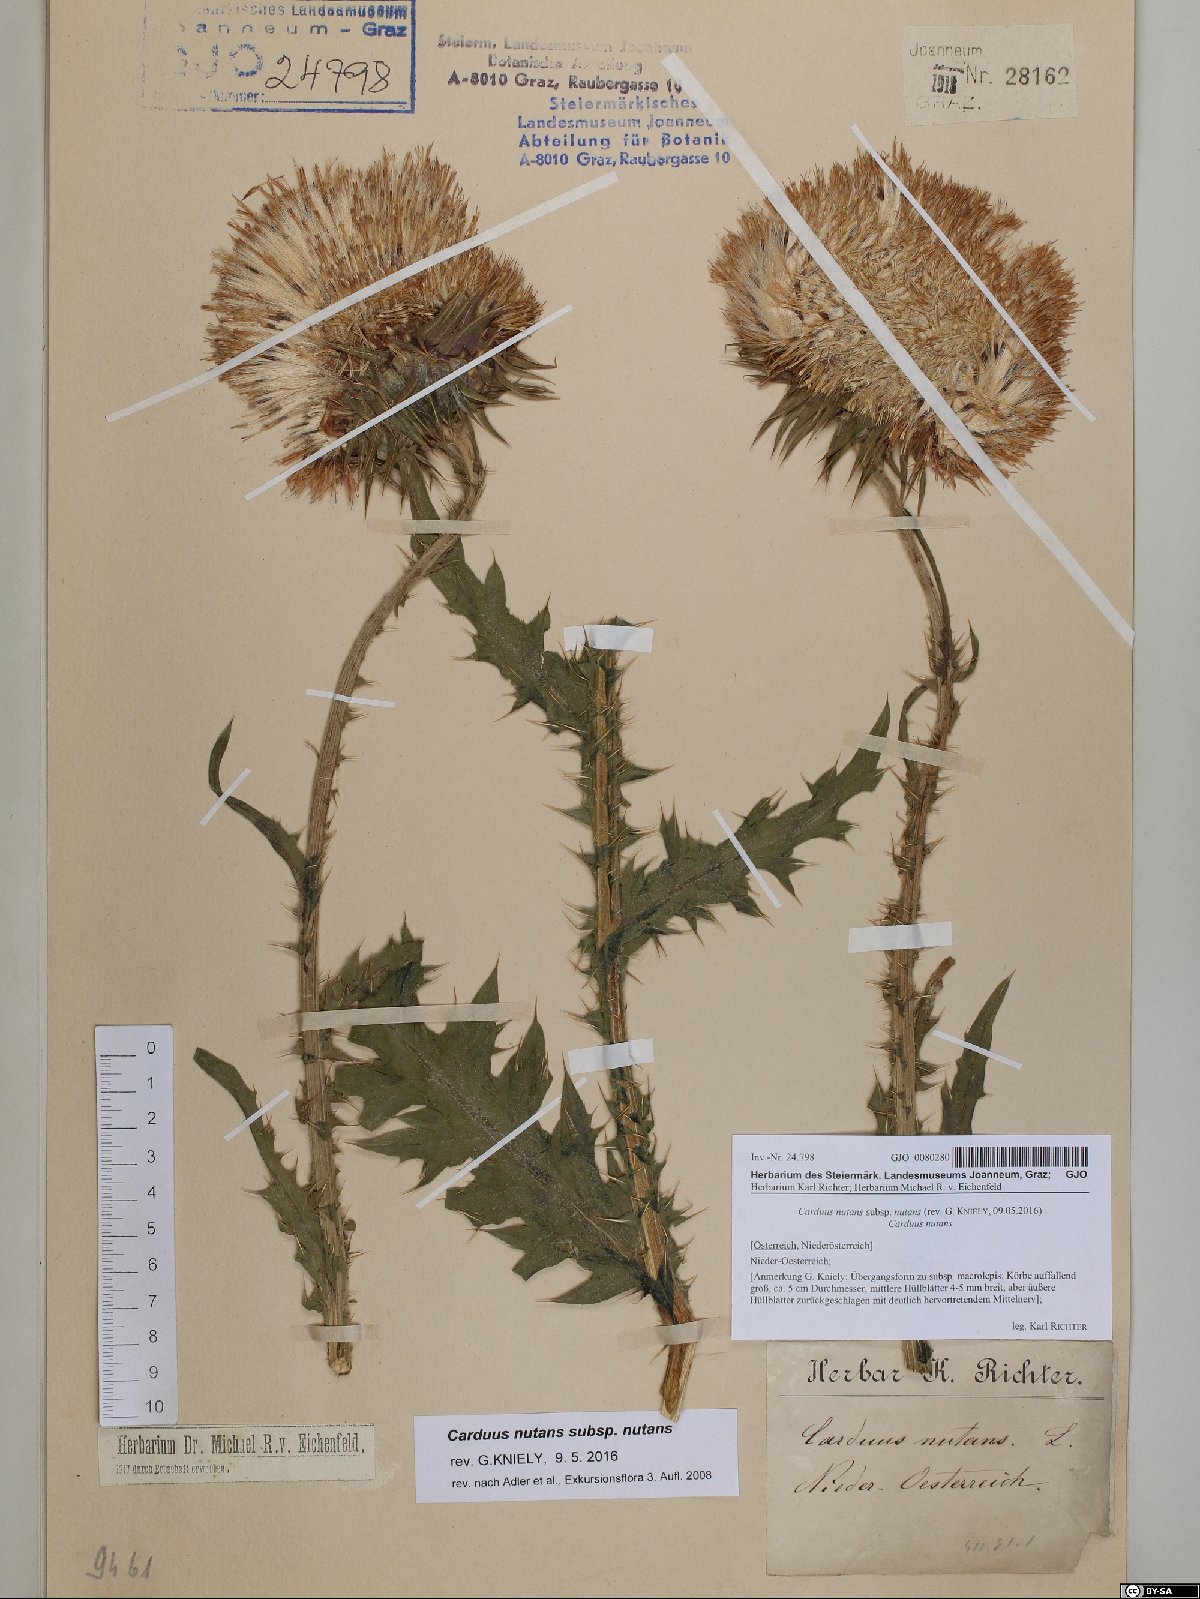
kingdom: Plantae
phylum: Tracheophyta
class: Magnoliopsida
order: Asterales
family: Asteraceae
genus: Carduus
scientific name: Carduus nutans
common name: Musk thistle
